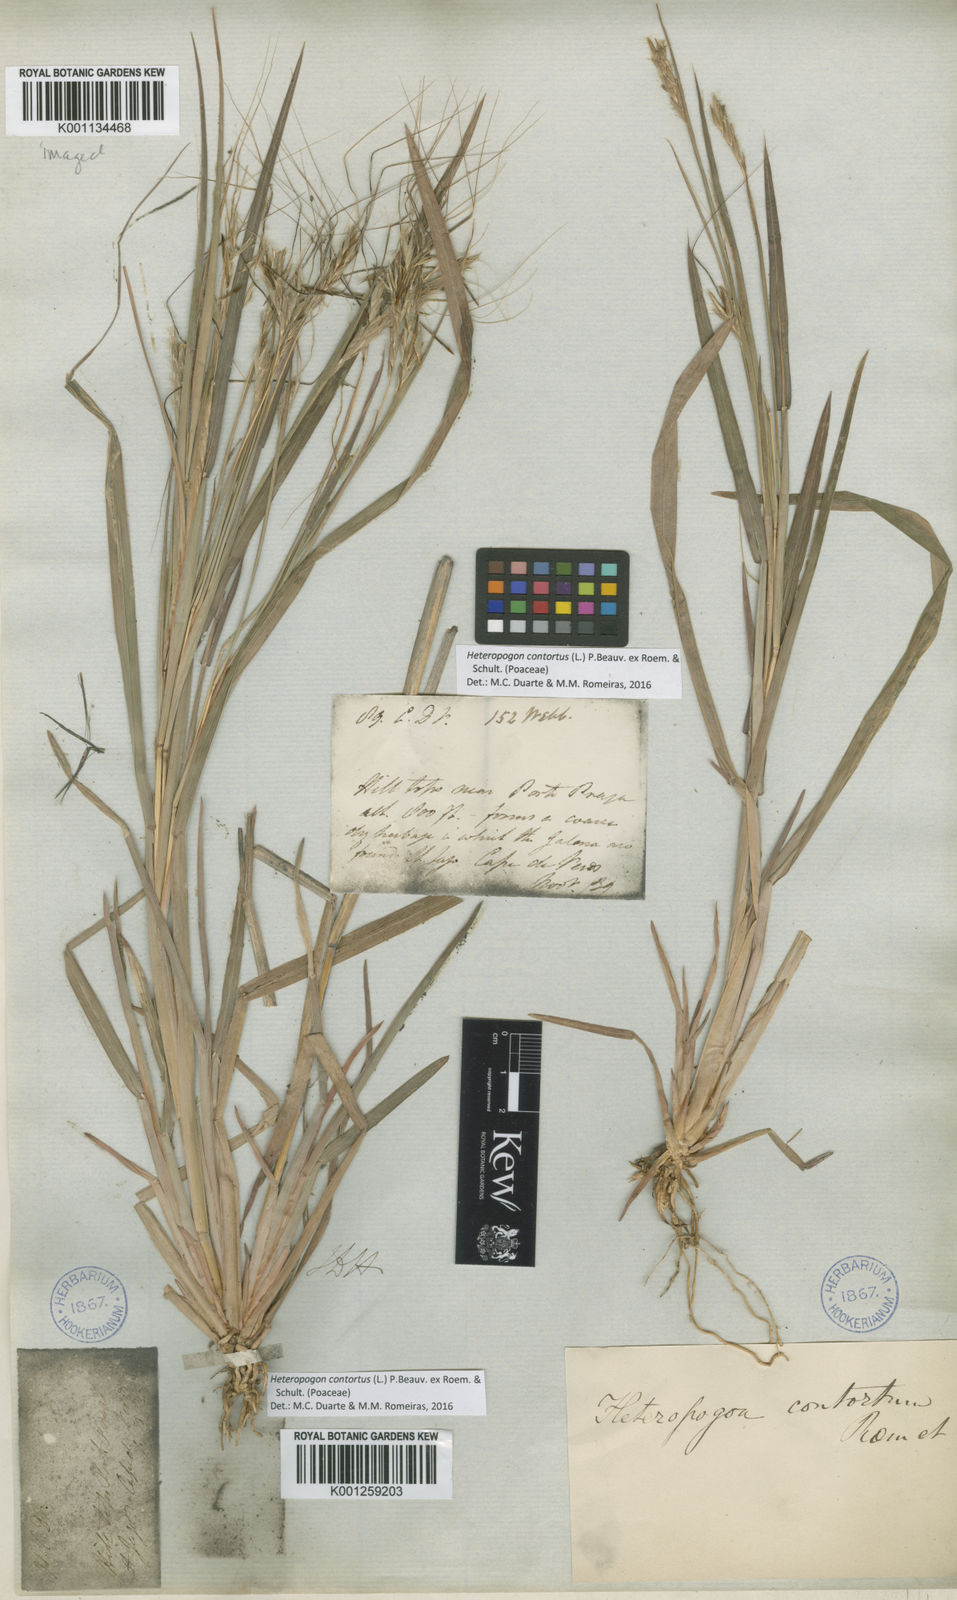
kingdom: Plantae
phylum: Tracheophyta
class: Liliopsida
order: Poales
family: Poaceae
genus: Heteropogon
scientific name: Heteropogon
